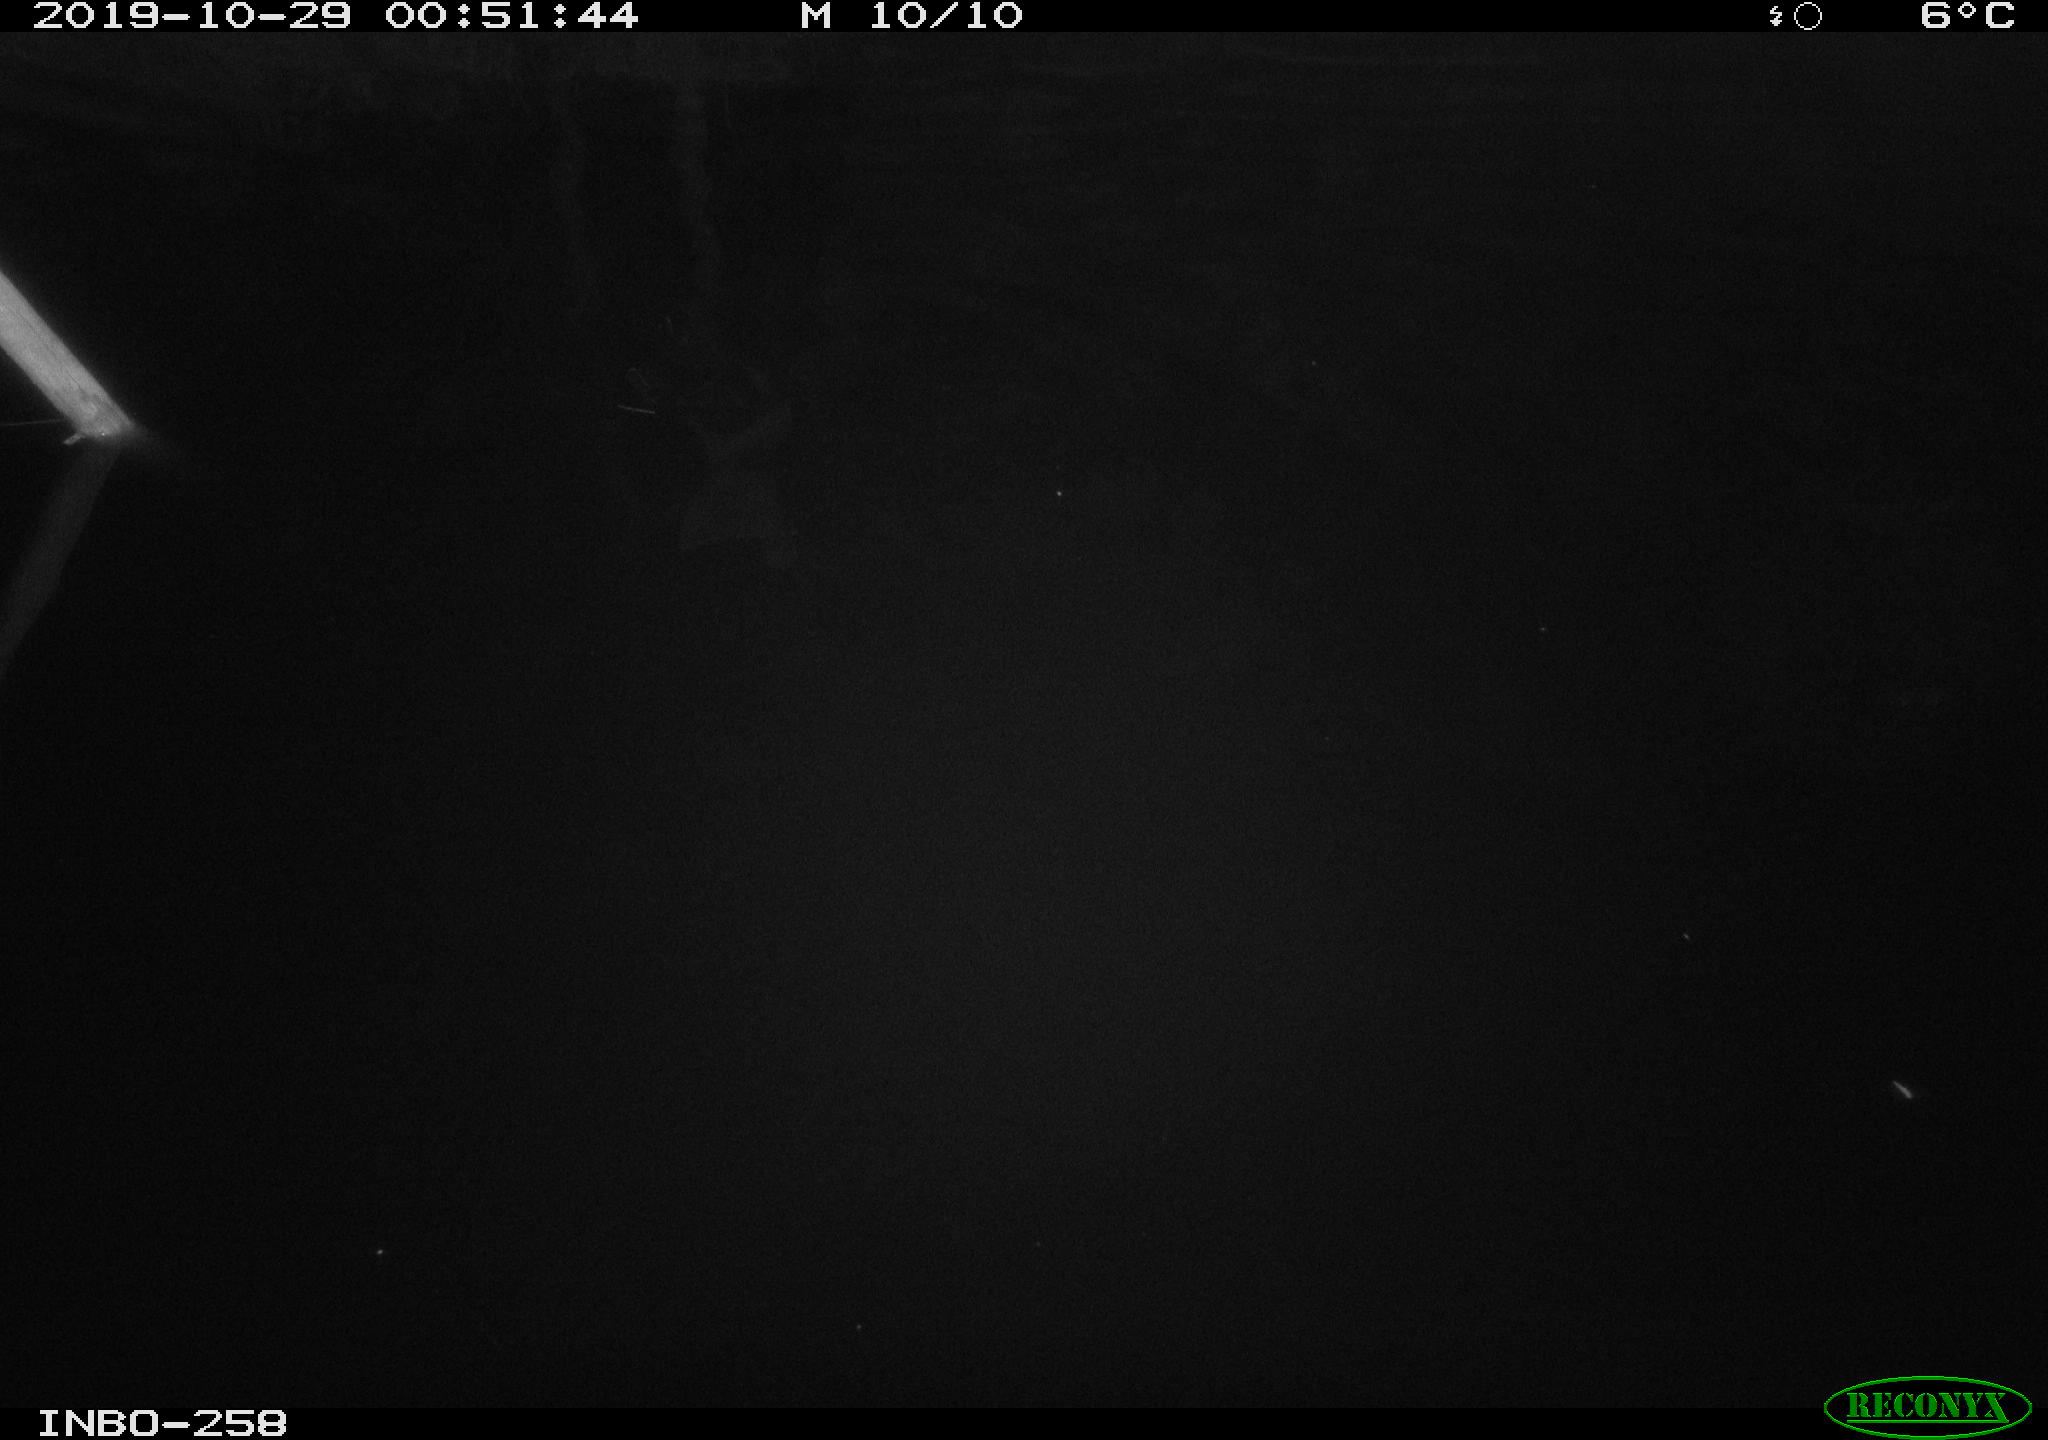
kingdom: Animalia
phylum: Chordata
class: Aves
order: Anseriformes
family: Anatidae
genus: Anas
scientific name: Anas platyrhynchos
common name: Mallard
